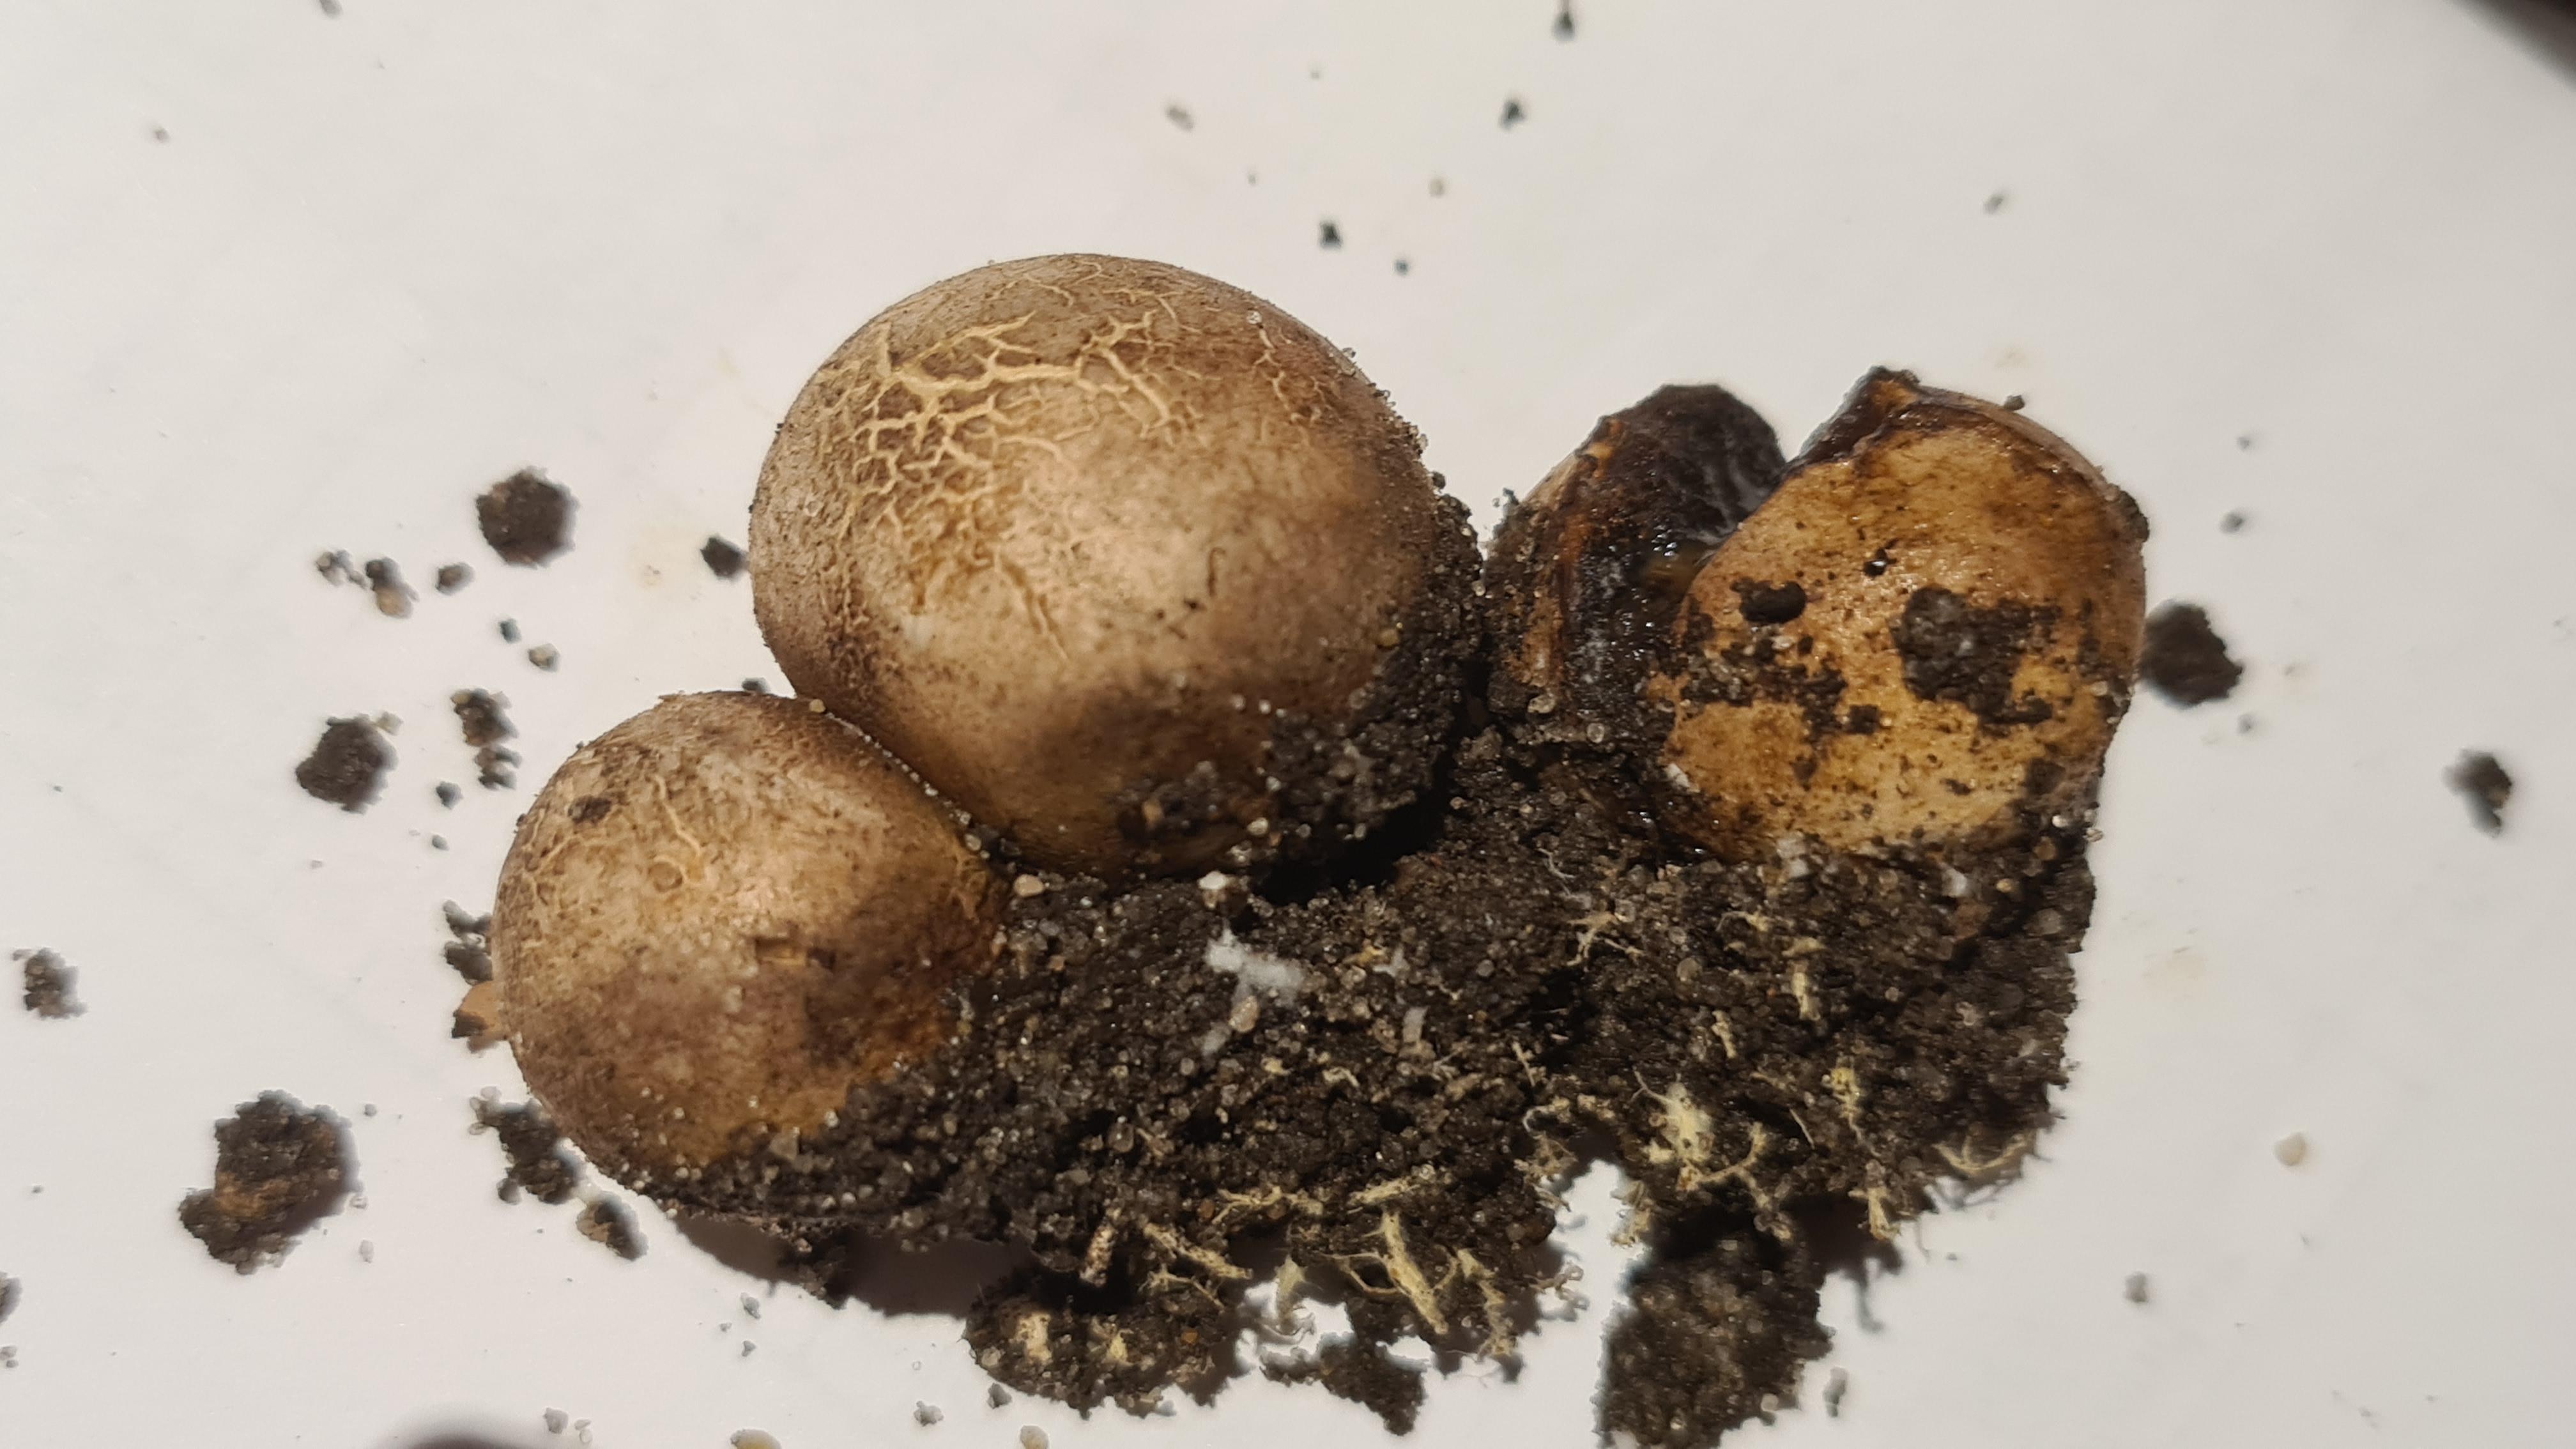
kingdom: Fungi
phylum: Basidiomycota
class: Agaricomycetes
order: Boletales
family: Sclerodermataceae
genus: Scleroderma
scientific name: Scleroderma bovista
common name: bovist-bruskbold
